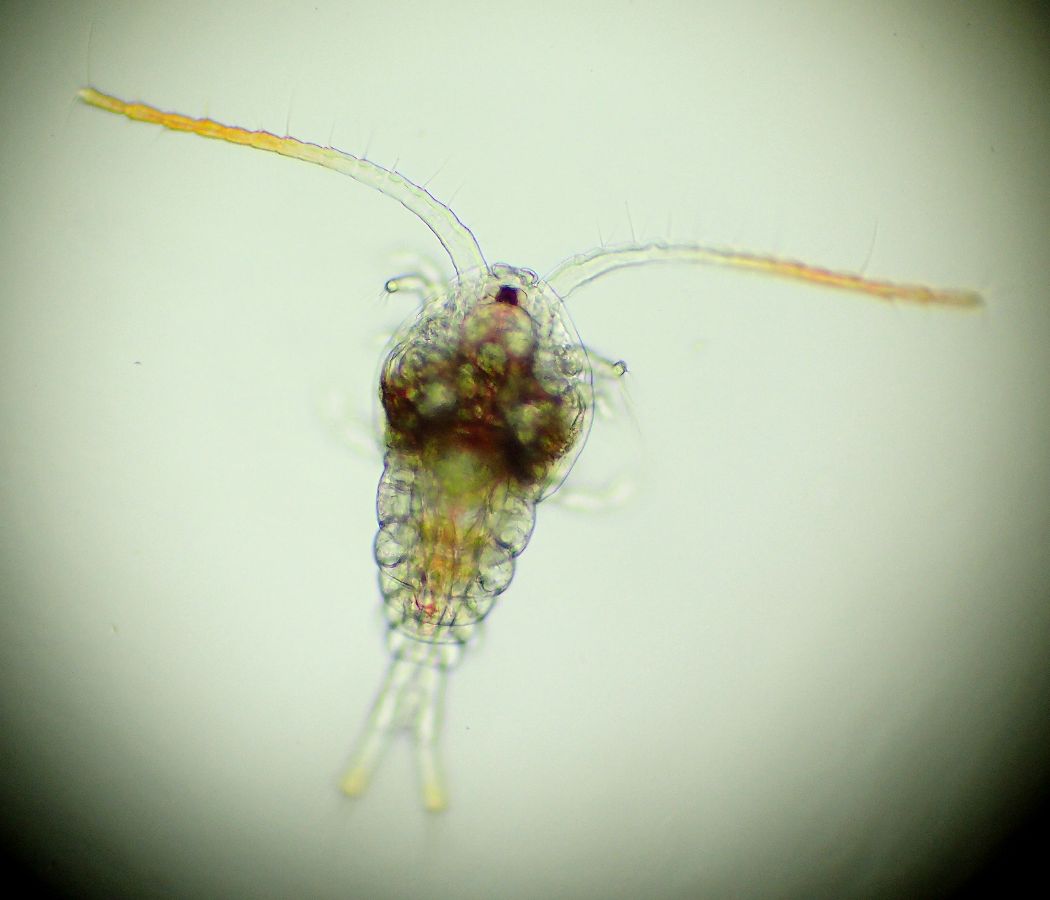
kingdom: Animalia
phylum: Arthropoda
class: Copepoda
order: Calanoida
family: Temoridae
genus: Temora
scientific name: Temora longicornis
